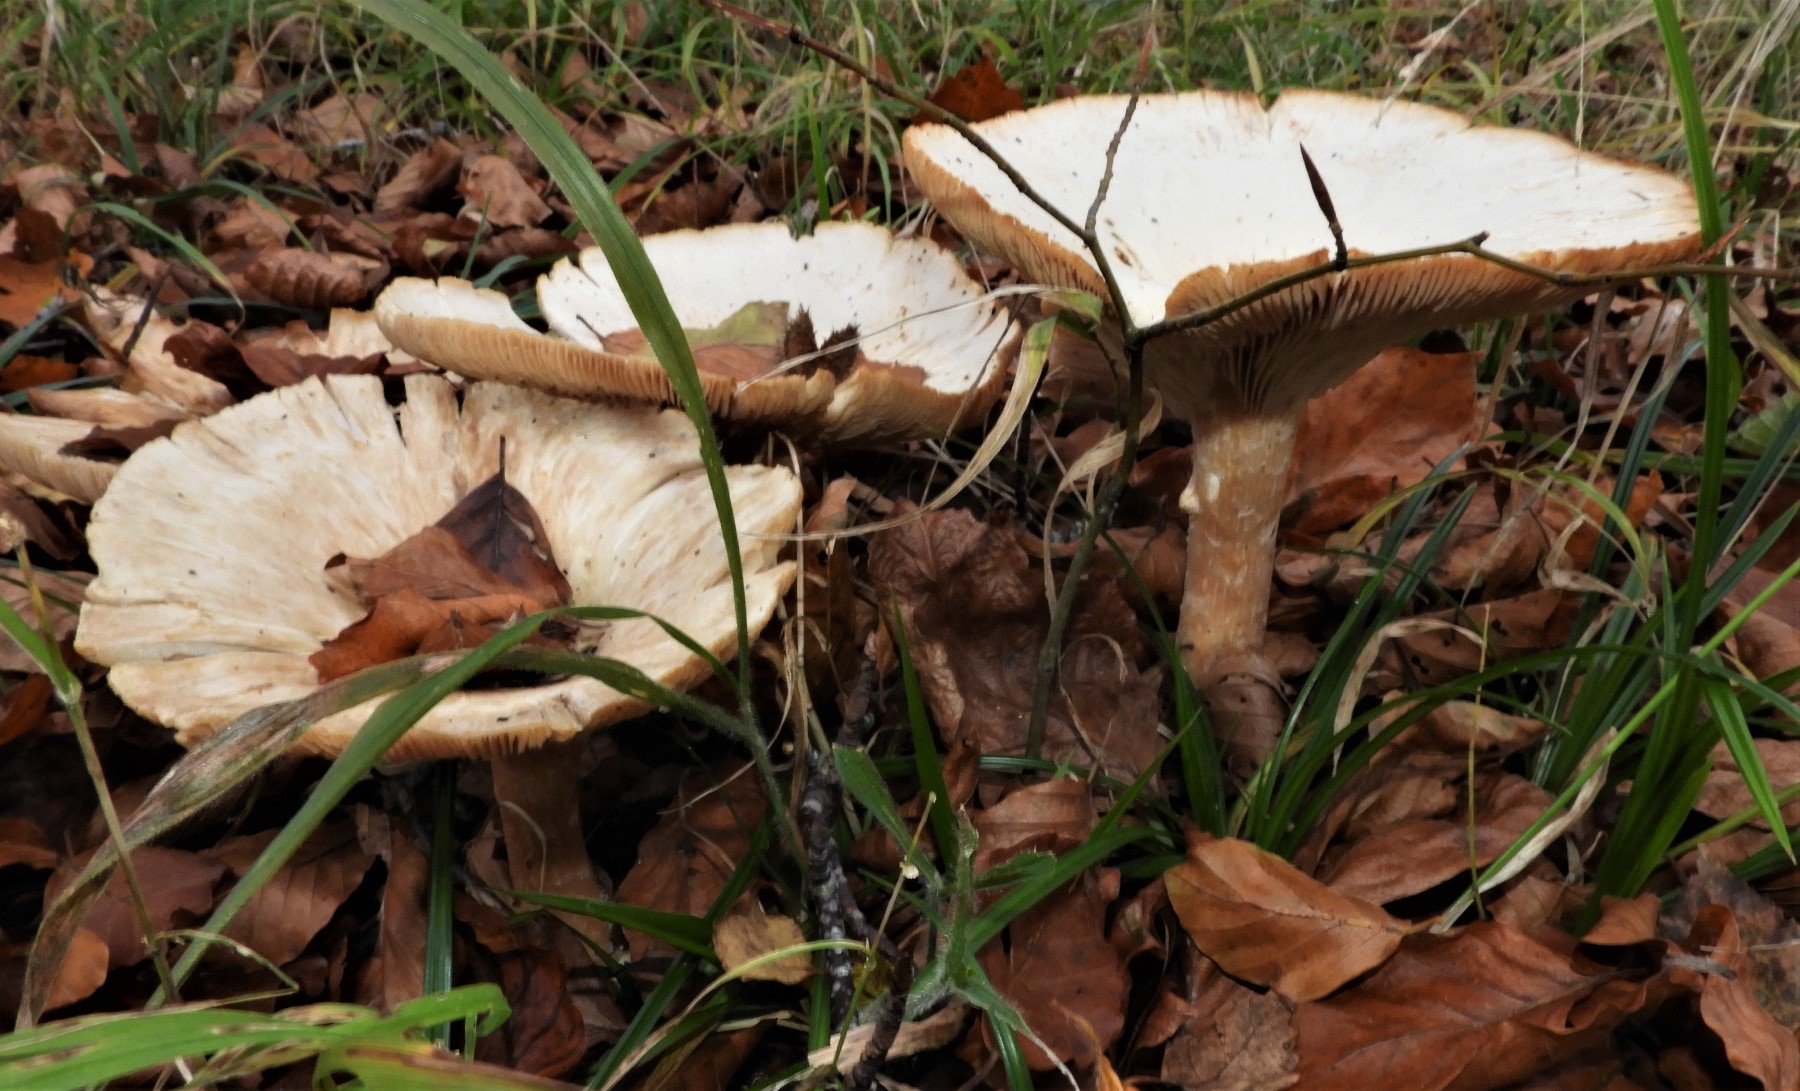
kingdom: Fungi
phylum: Basidiomycota
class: Agaricomycetes
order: Agaricales
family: Tricholomataceae
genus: Infundibulicybe
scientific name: Infundibulicybe geotropa
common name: stor tragthat
